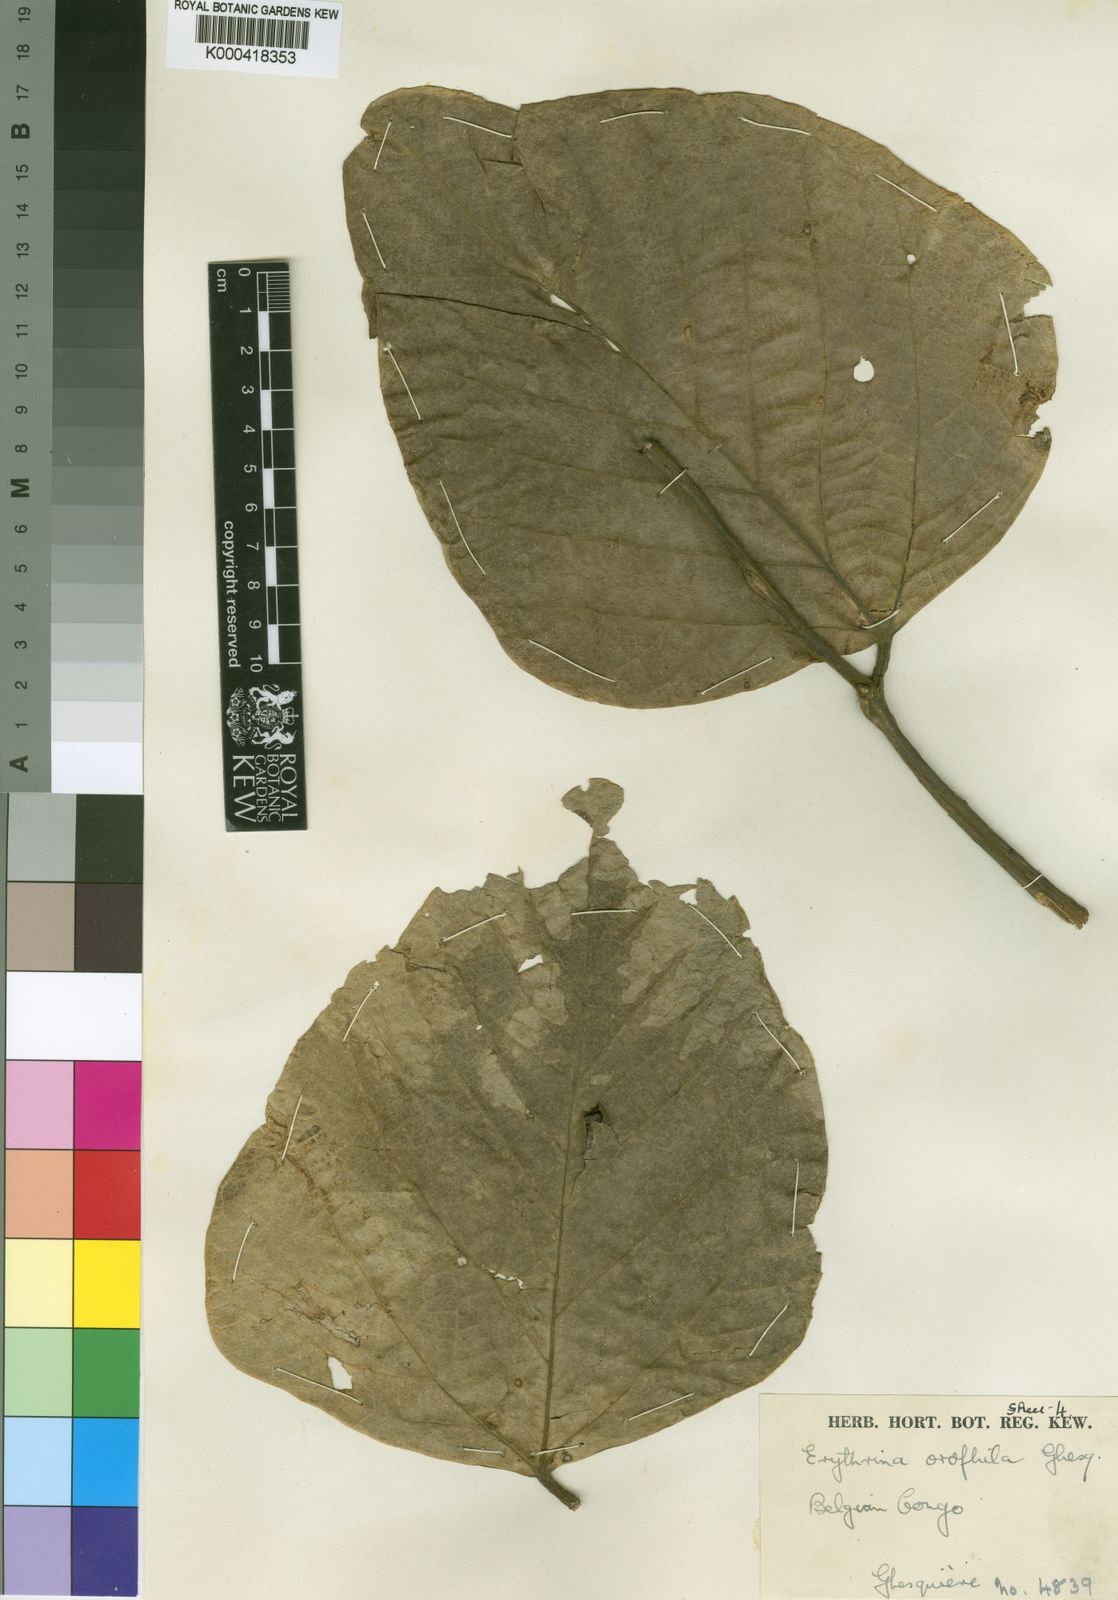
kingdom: Plantae
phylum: Tracheophyta
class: Magnoliopsida
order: Fabales
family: Fabaceae
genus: Erythrina
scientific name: Erythrina orophila
